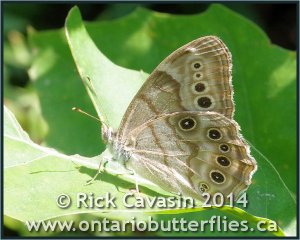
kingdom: Animalia
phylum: Arthropoda
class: Insecta
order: Lepidoptera
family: Nymphalidae
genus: Lethe
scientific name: Lethe anthedon
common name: Northern Pearly-Eye
